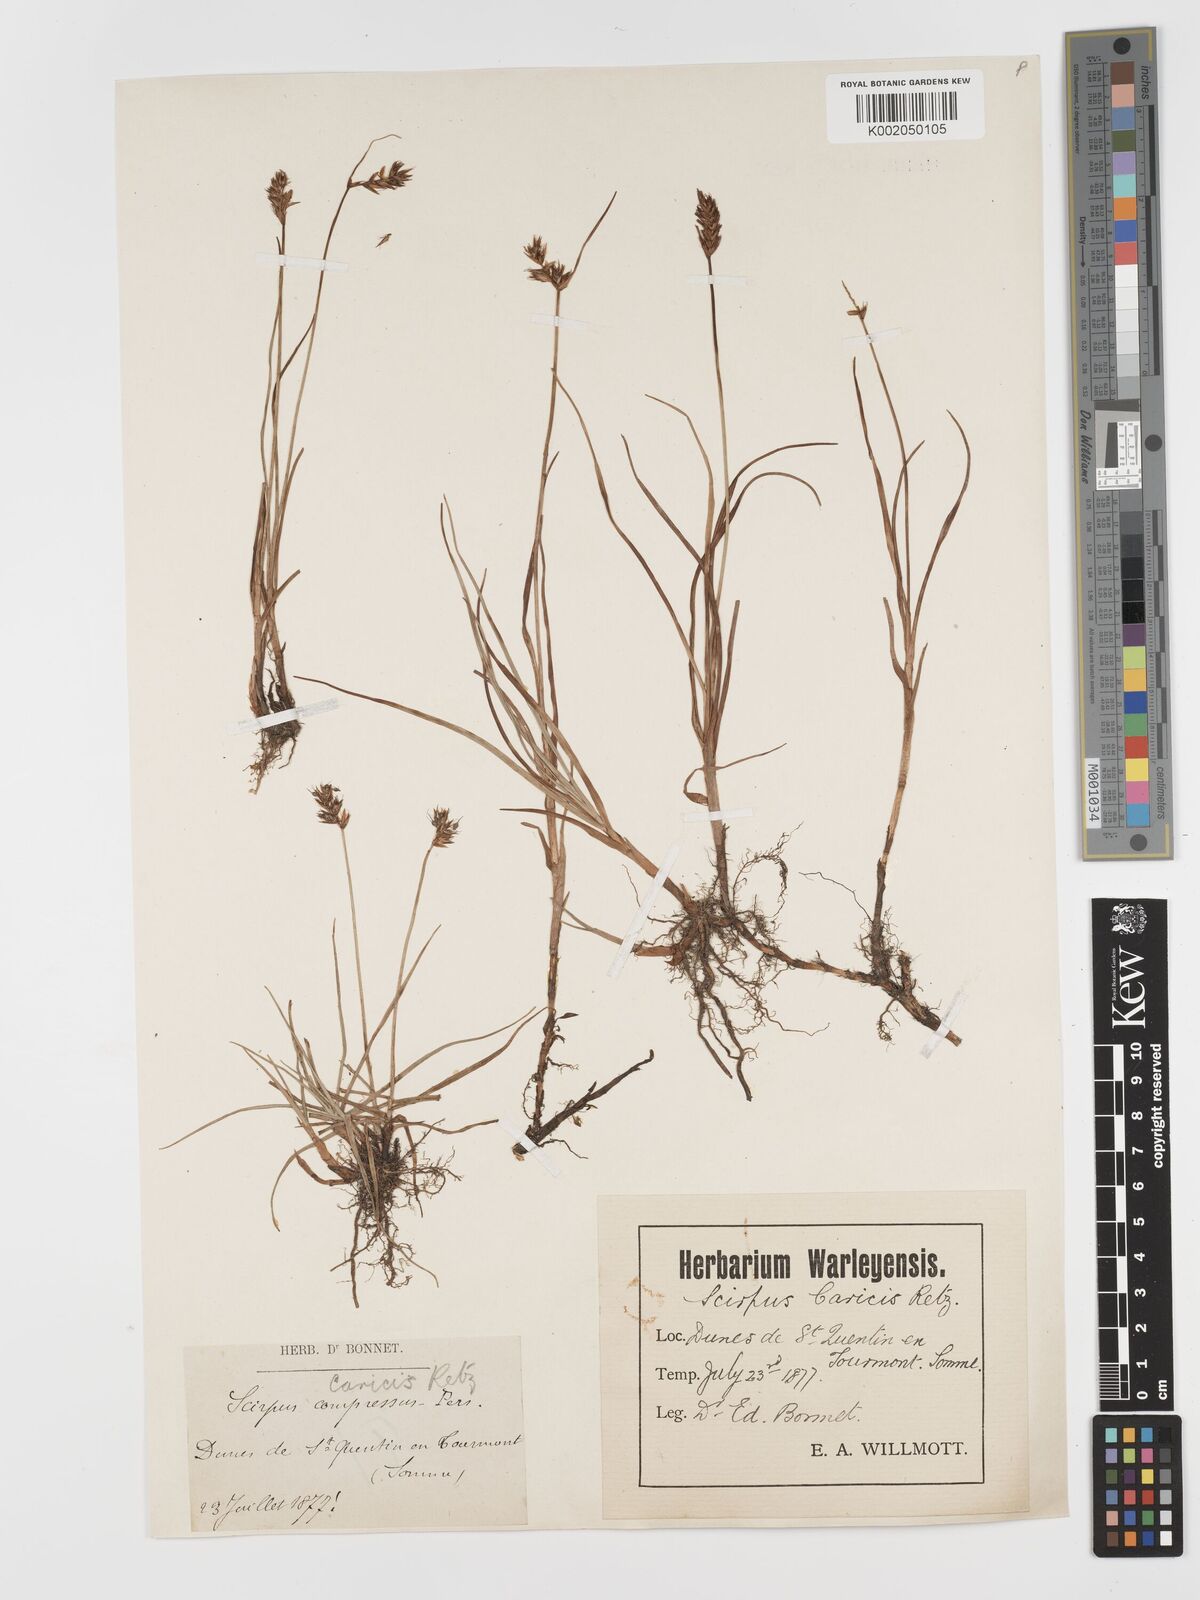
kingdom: Plantae
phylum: Tracheophyta
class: Liliopsida
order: Poales
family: Cyperaceae
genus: Blysmus
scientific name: Blysmus compressus
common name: Flat-sedge
